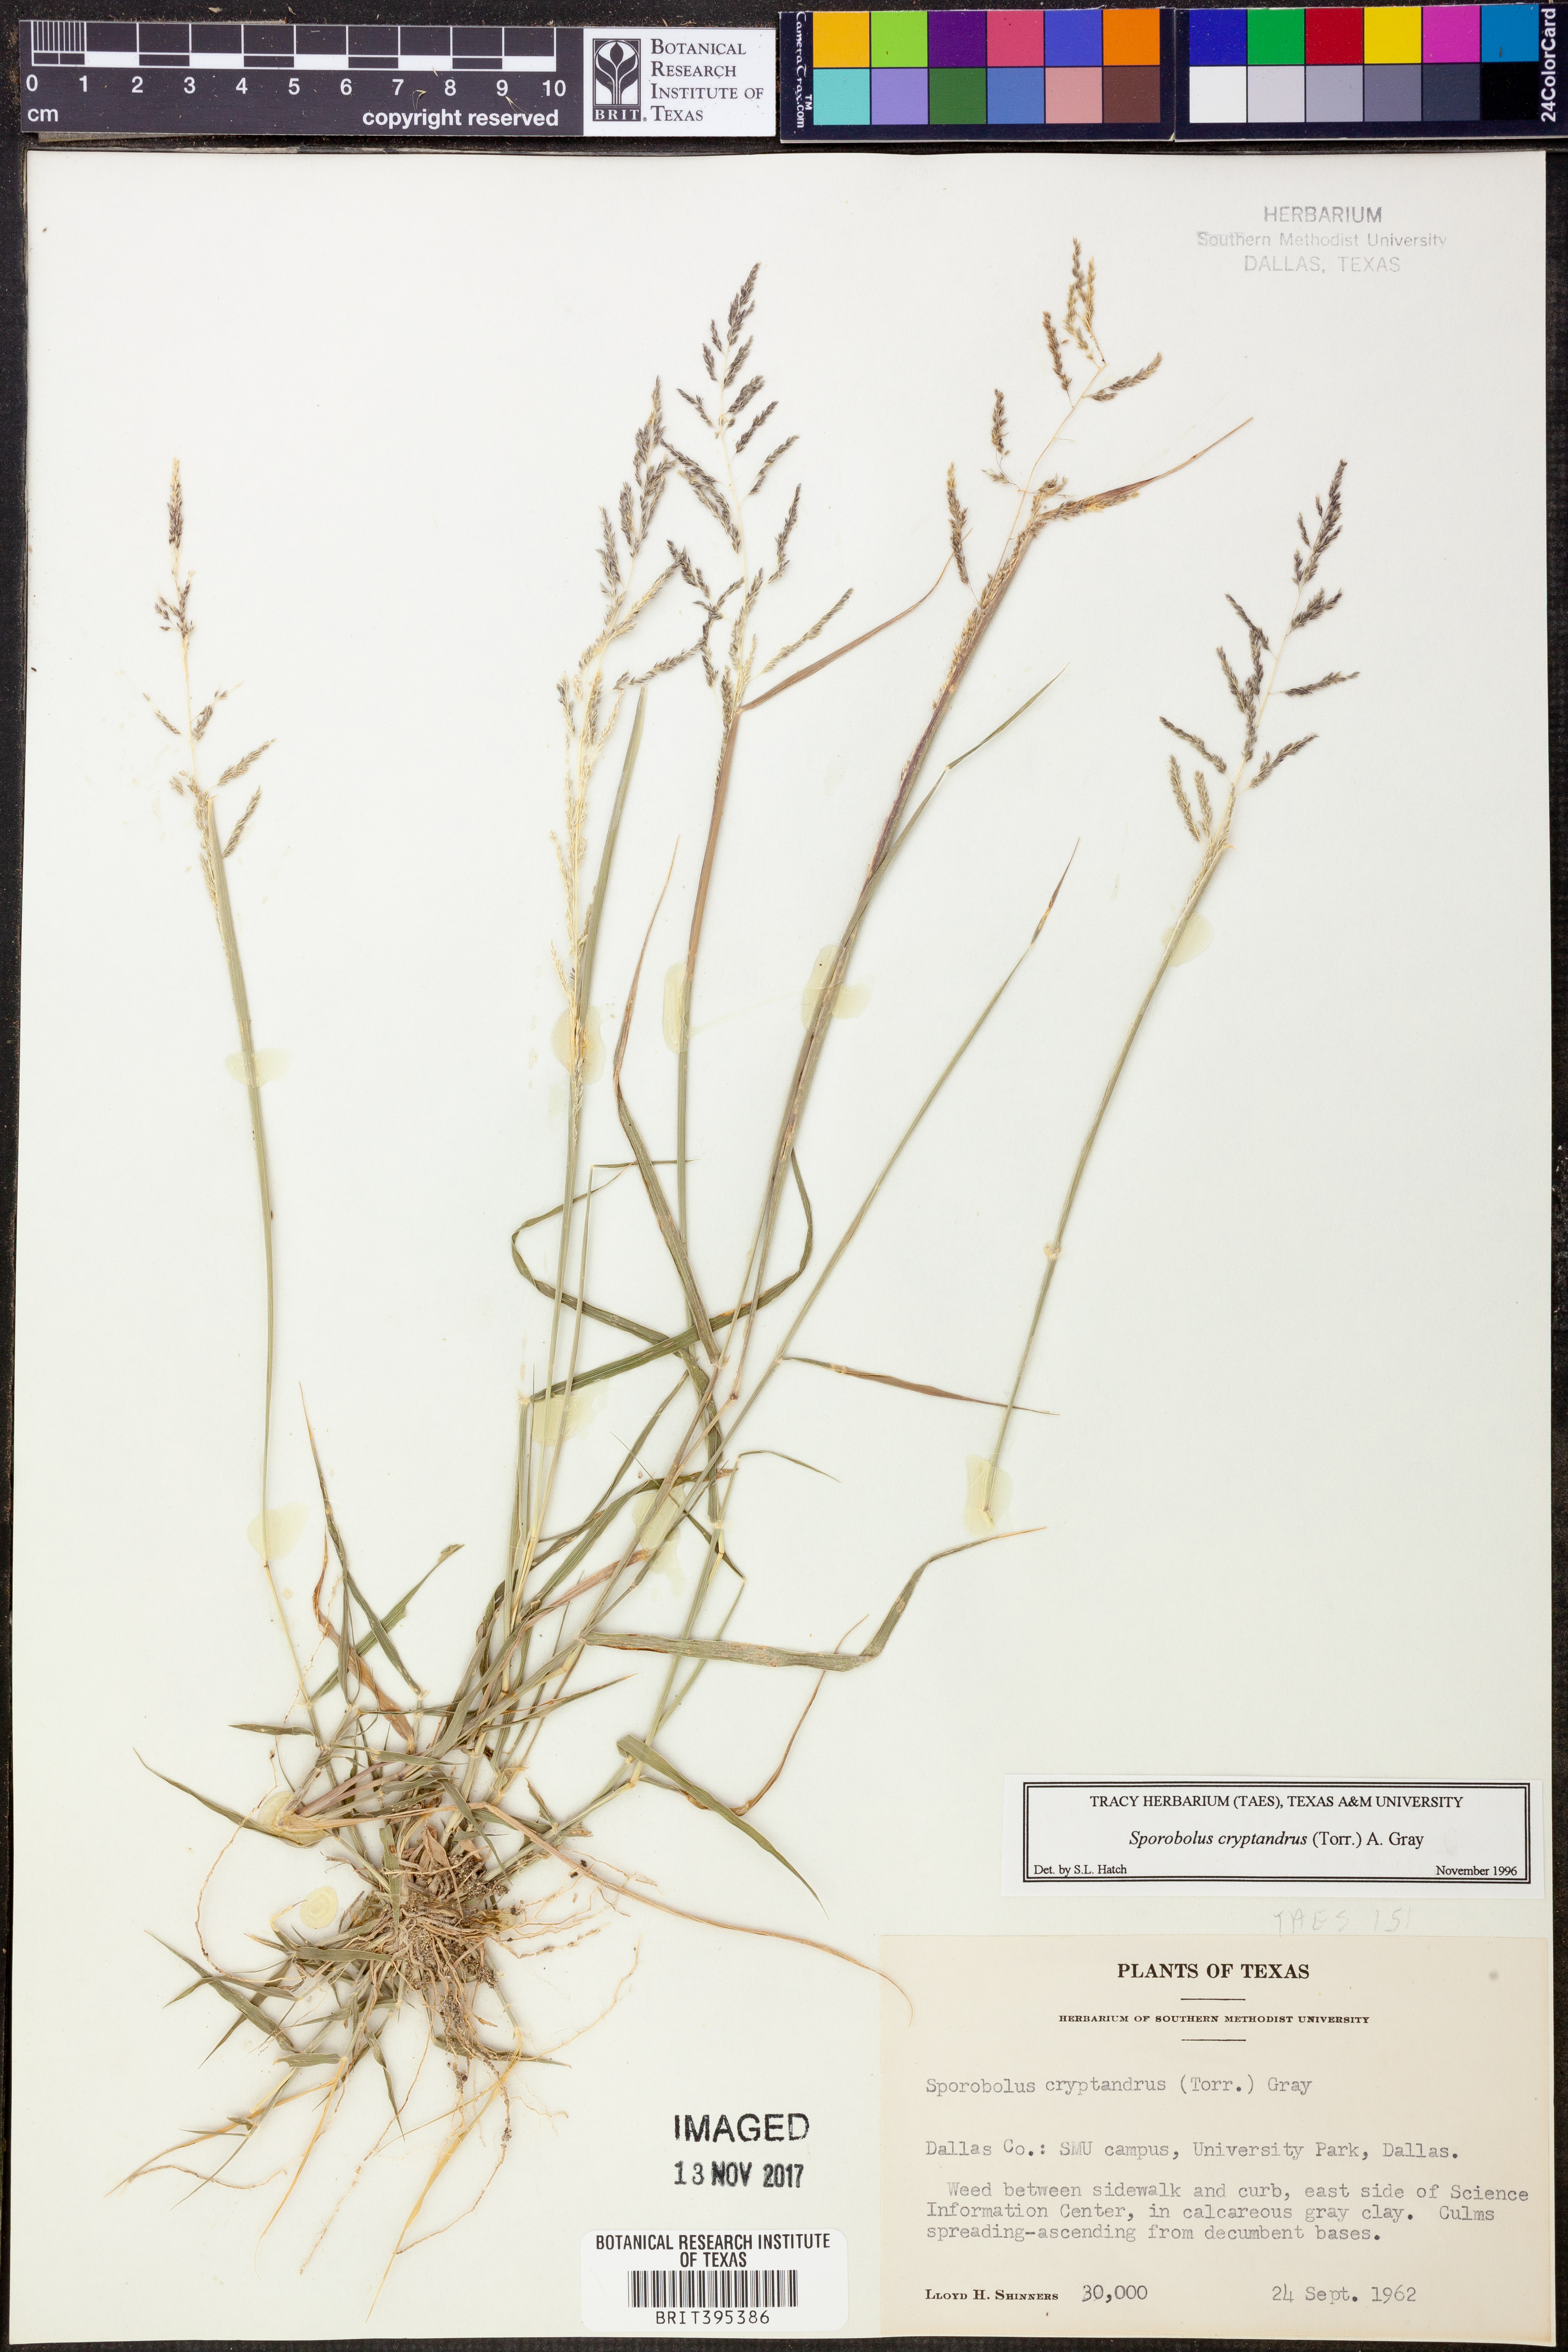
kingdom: Plantae
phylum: Tracheophyta
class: Liliopsida
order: Poales
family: Poaceae
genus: Sporobolus
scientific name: Sporobolus cryptandrus
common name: Sand dropseed
